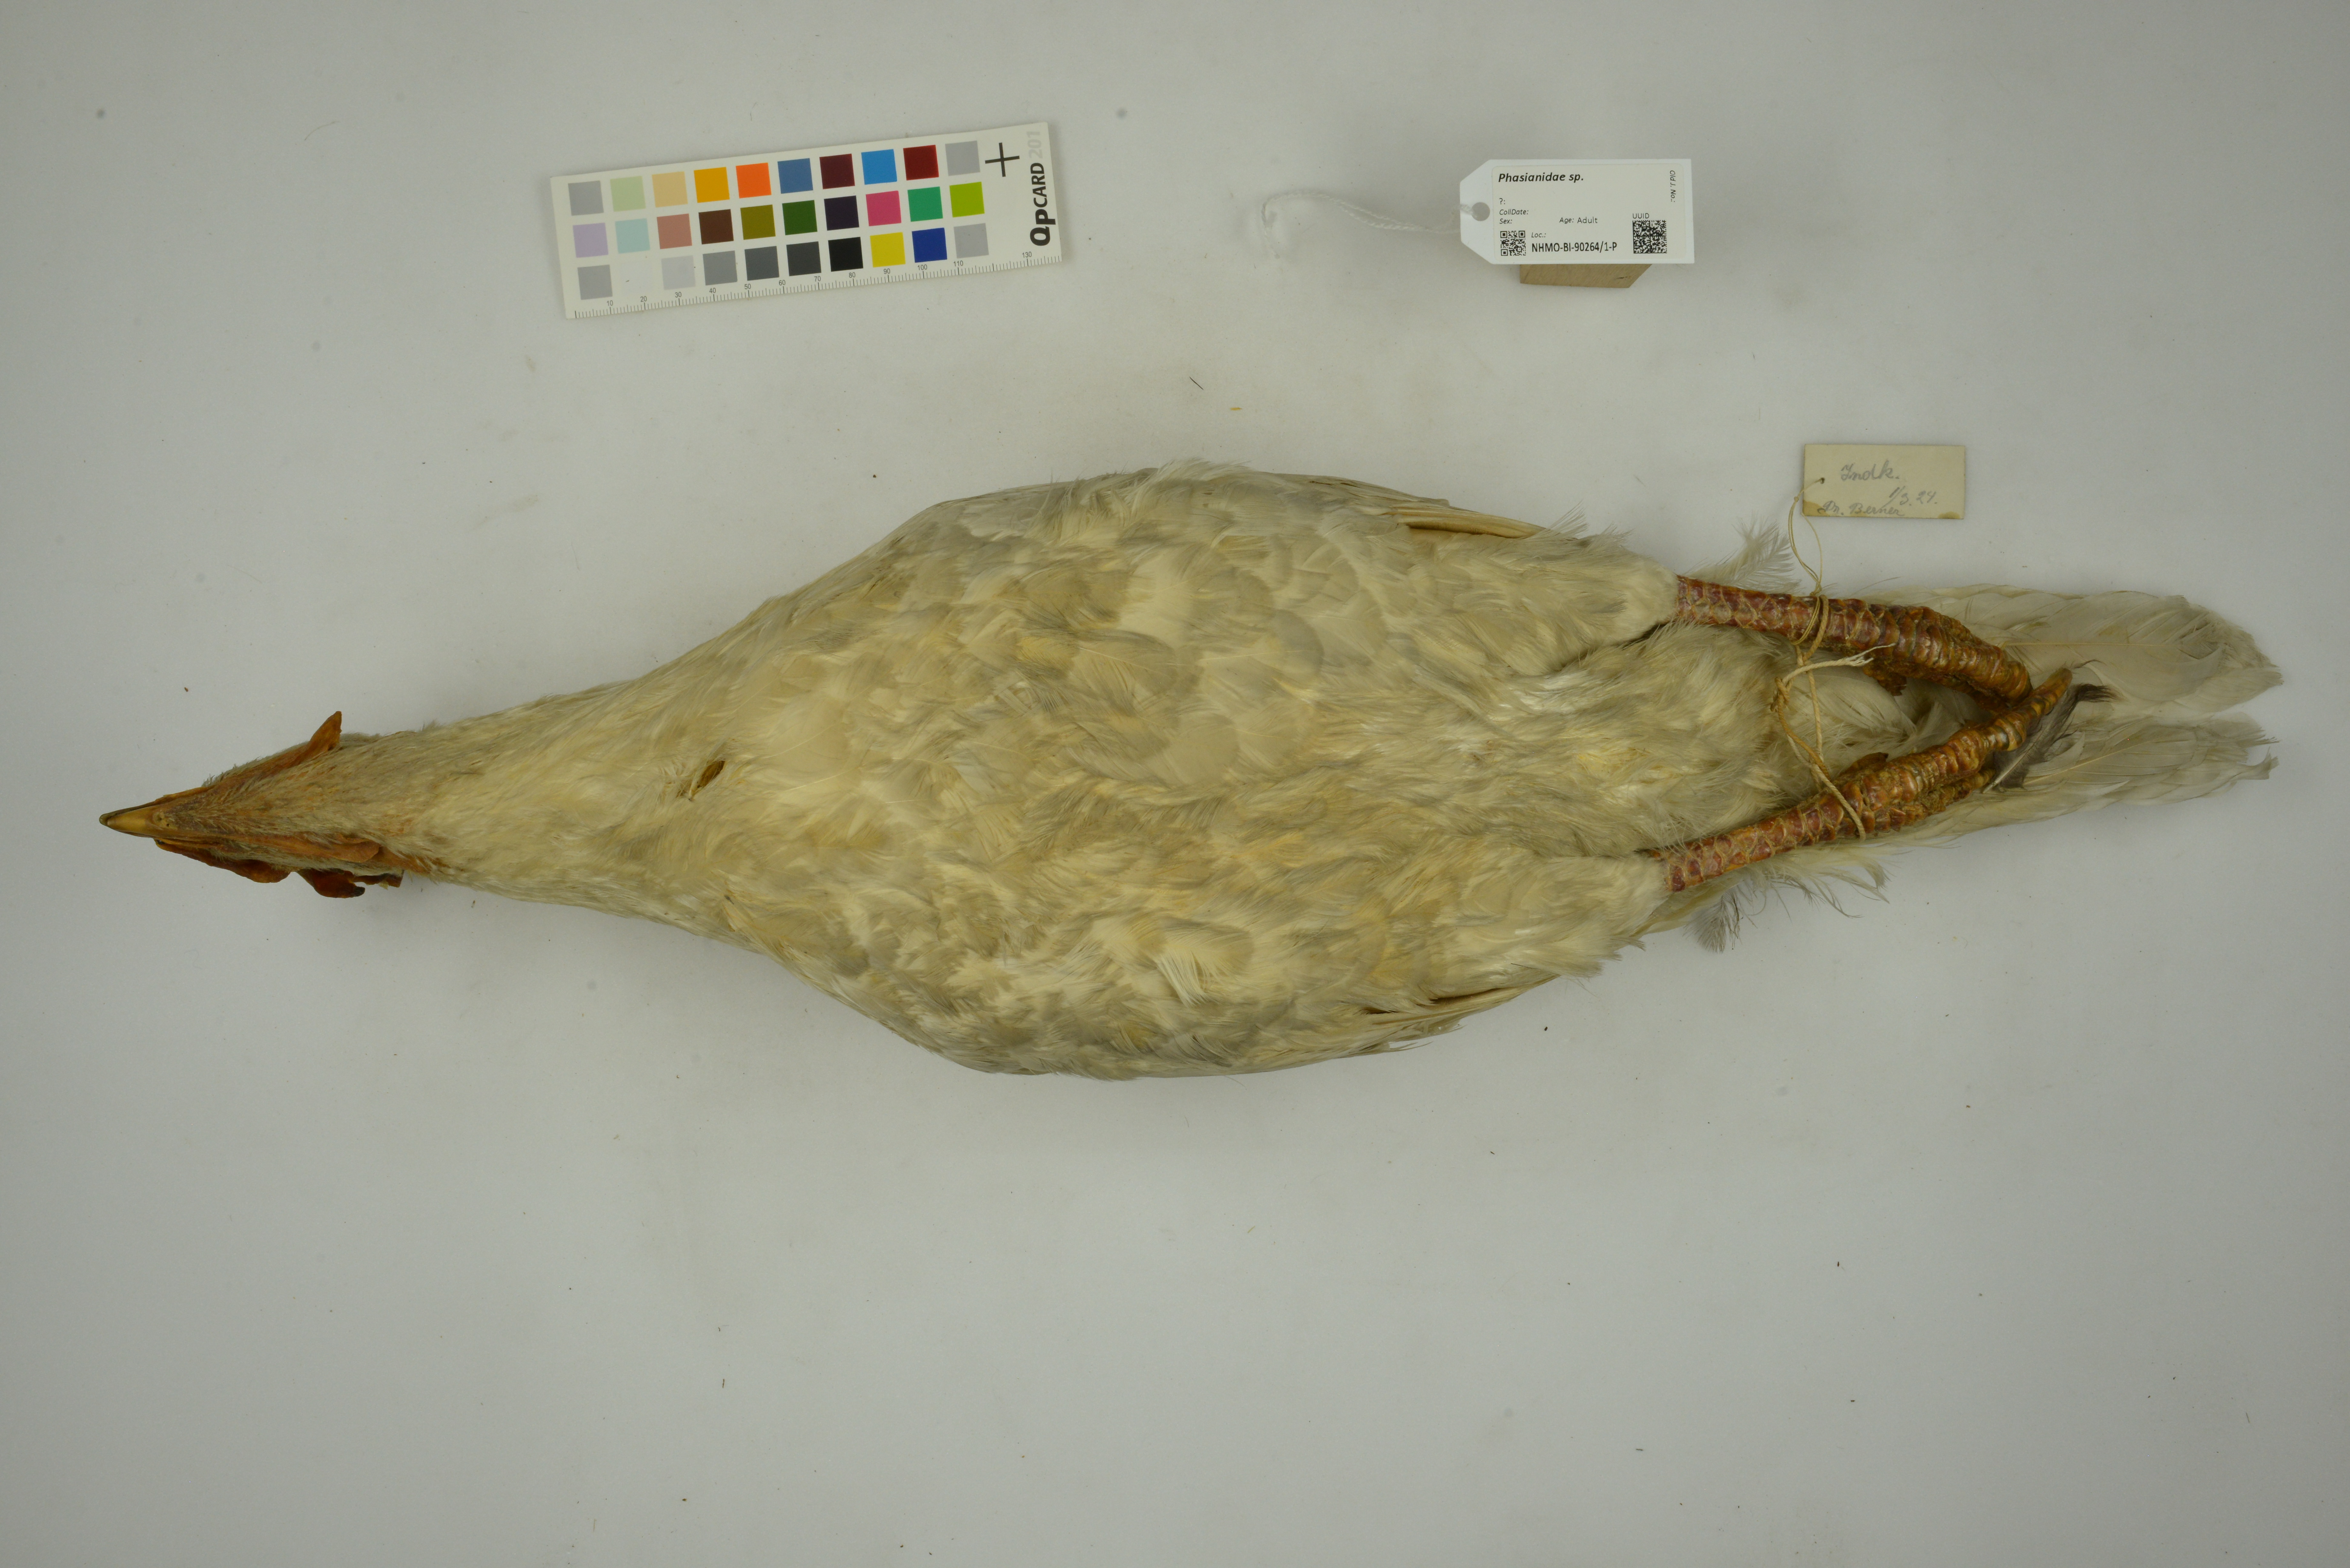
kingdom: Animalia
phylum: Chordata
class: Aves
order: Galliformes
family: Phasianidae
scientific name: Phasianidae
